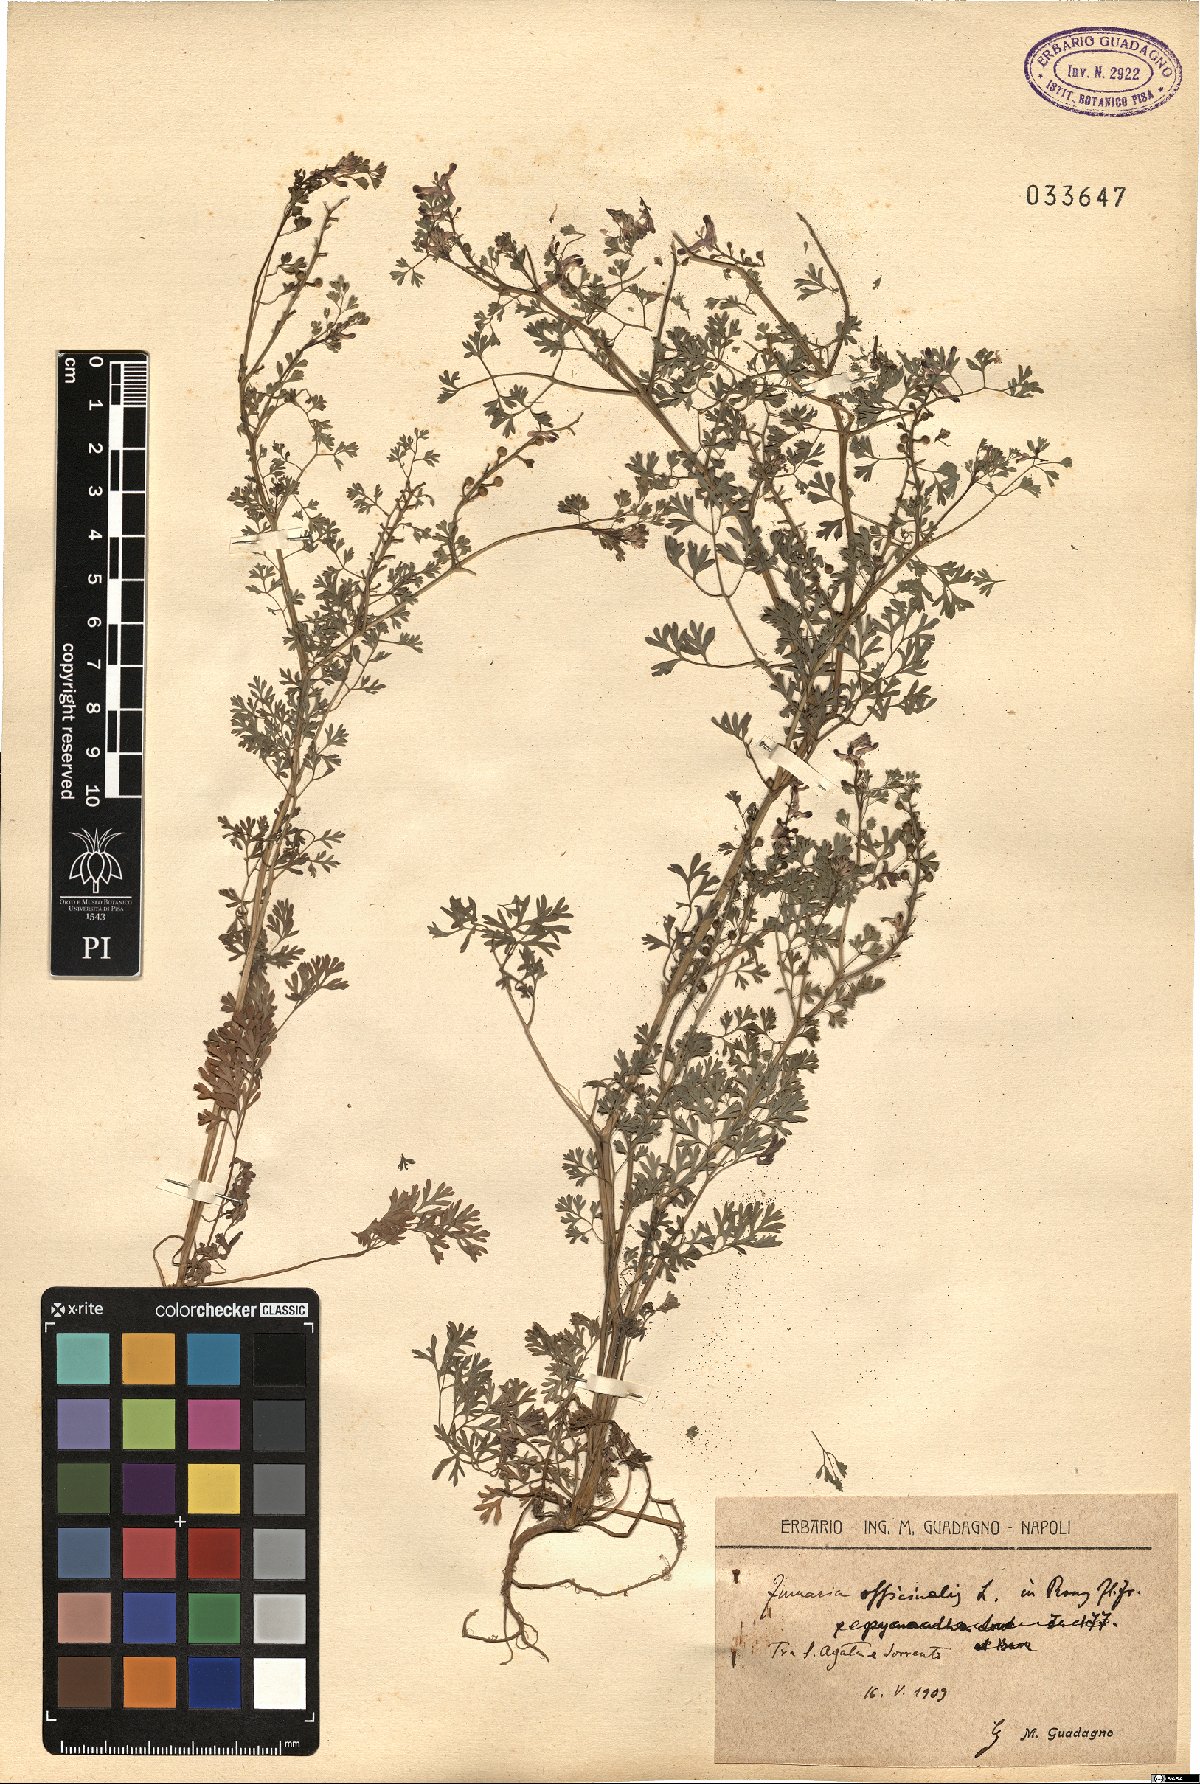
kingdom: Plantae
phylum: Tracheophyta
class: Magnoliopsida
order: Ranunculales
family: Papaveraceae
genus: Fumaria
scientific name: Fumaria officinalis
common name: Common fumitory
